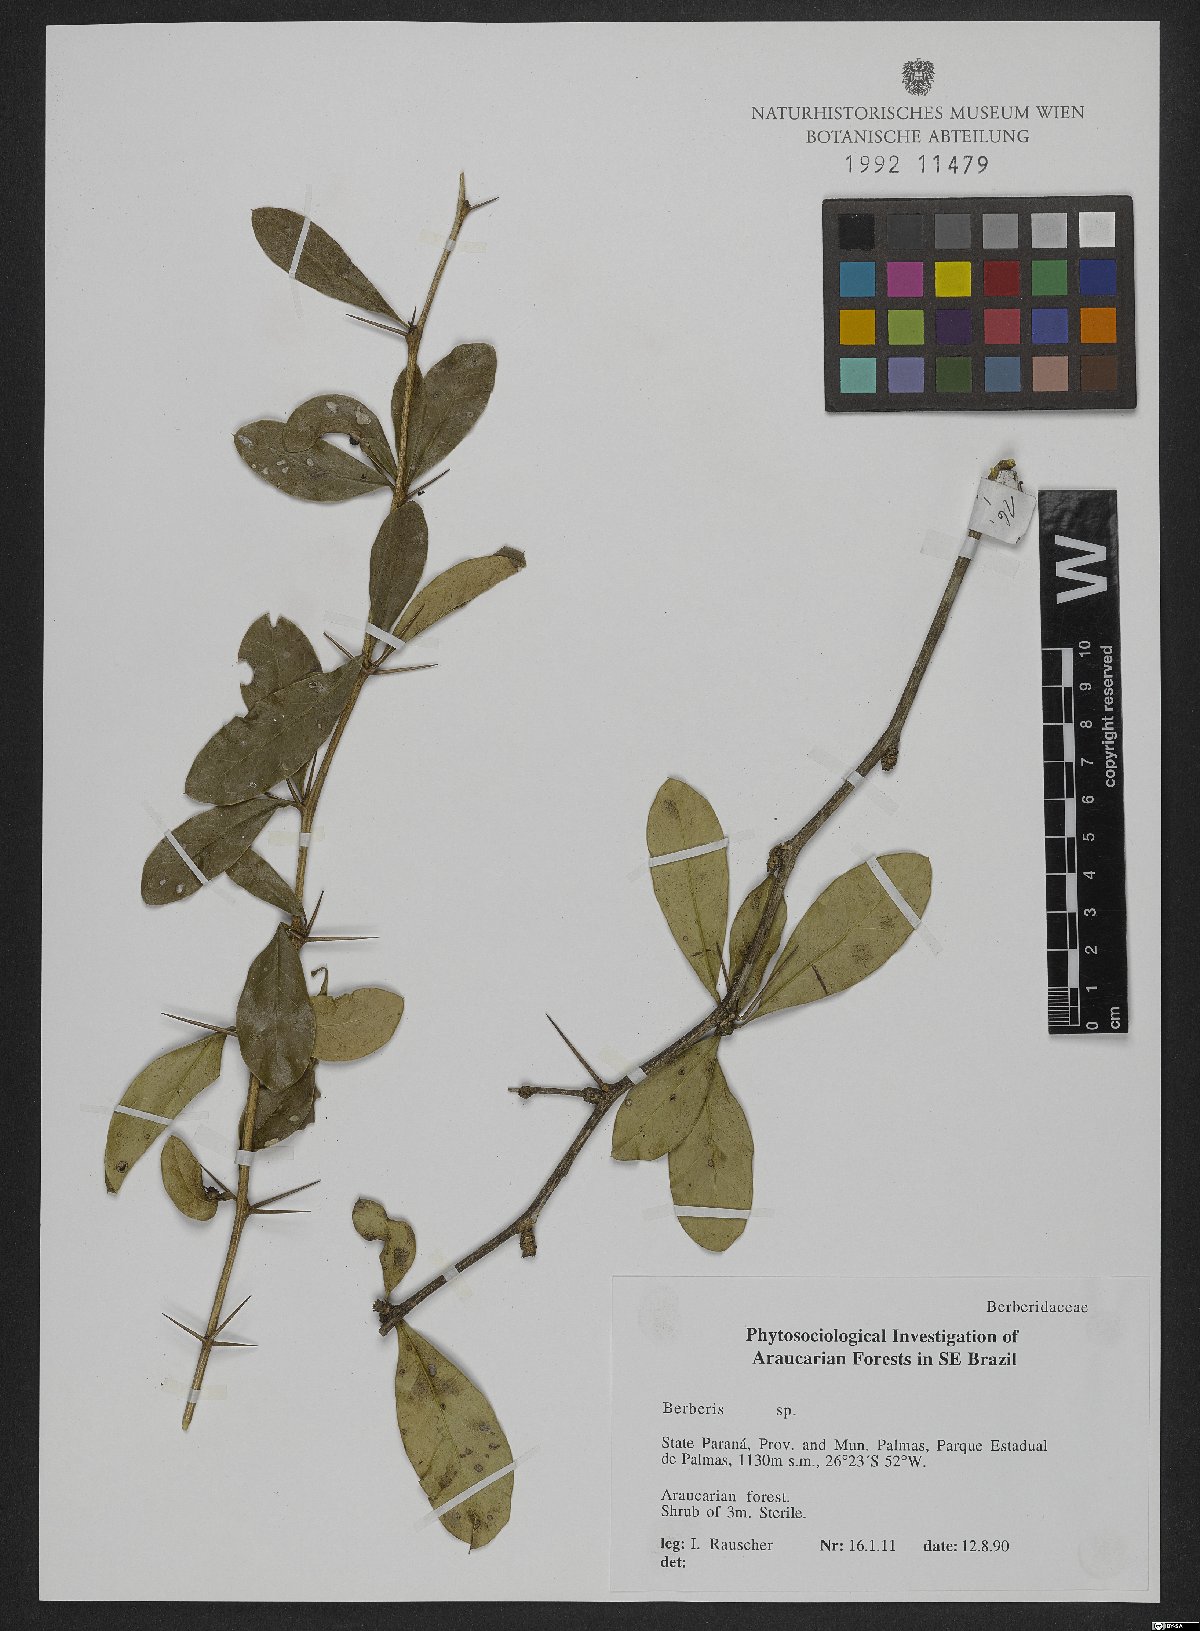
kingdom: Plantae
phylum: Tracheophyta
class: Magnoliopsida
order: Ranunculales
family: Berberidaceae
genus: Berberis
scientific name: Berberis
